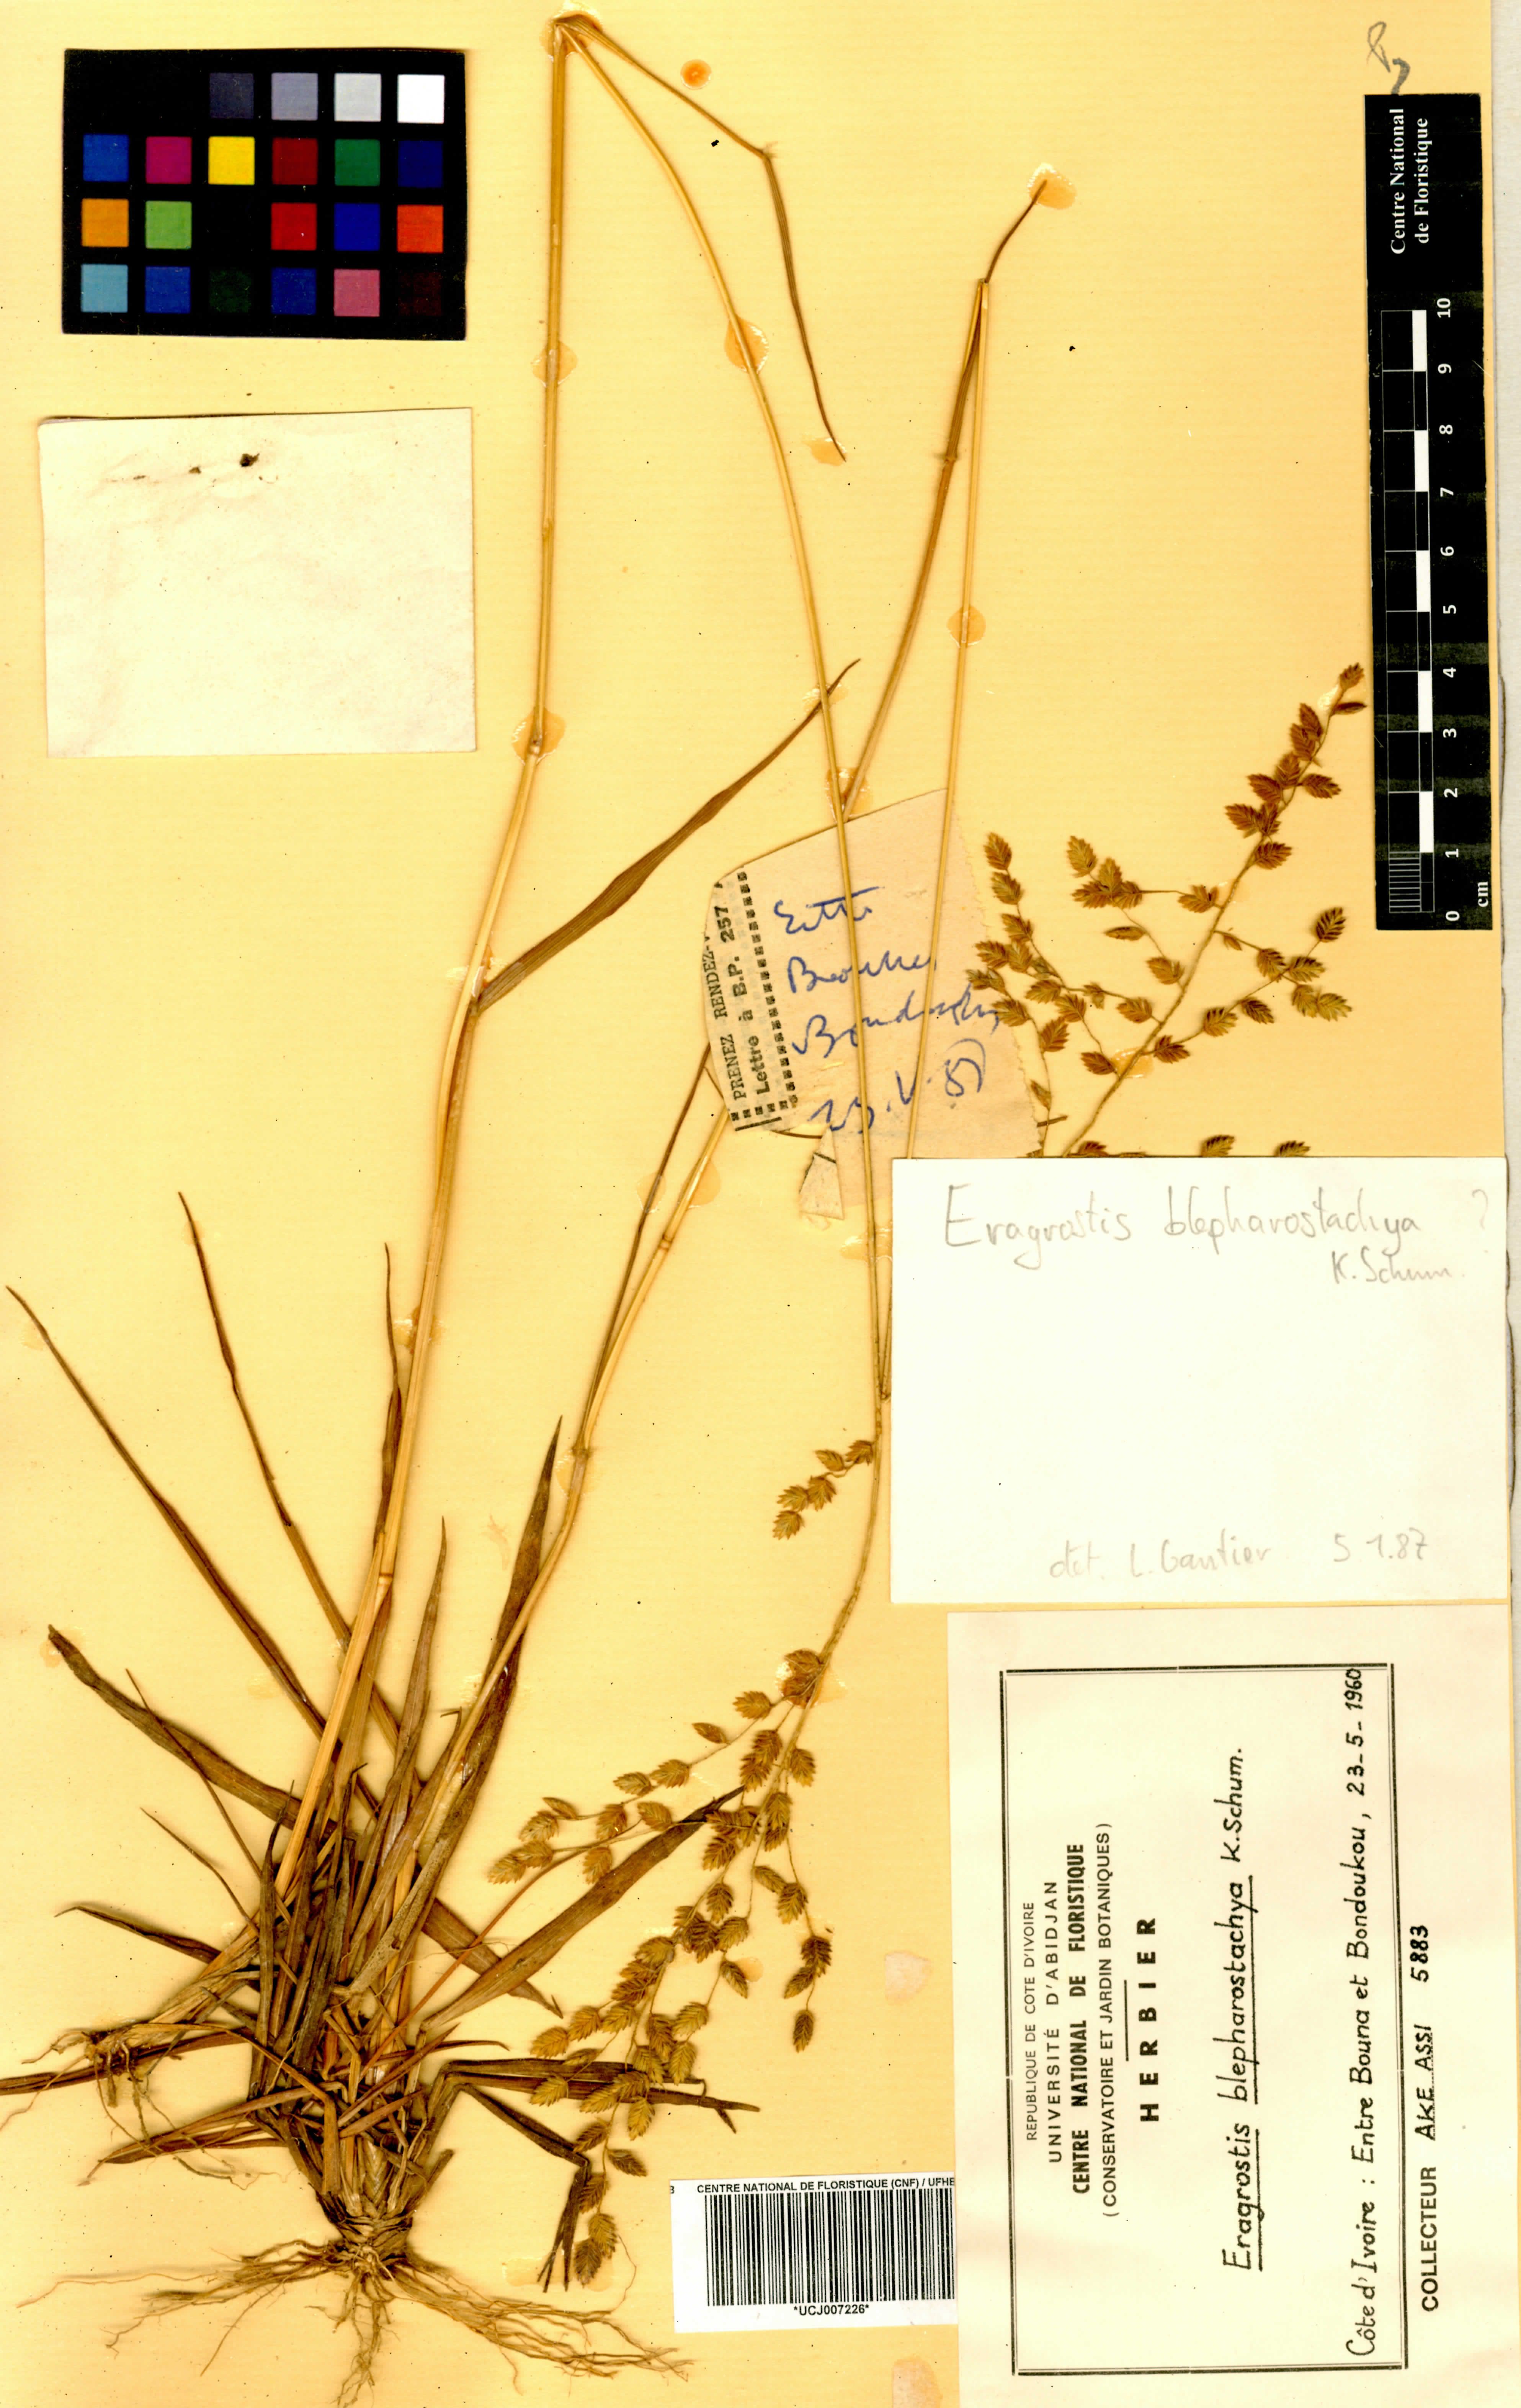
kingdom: Plantae
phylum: Tracheophyta
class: Liliopsida
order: Poales
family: Poaceae
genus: Eragrostis
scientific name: Eragrostis blepharostachya
